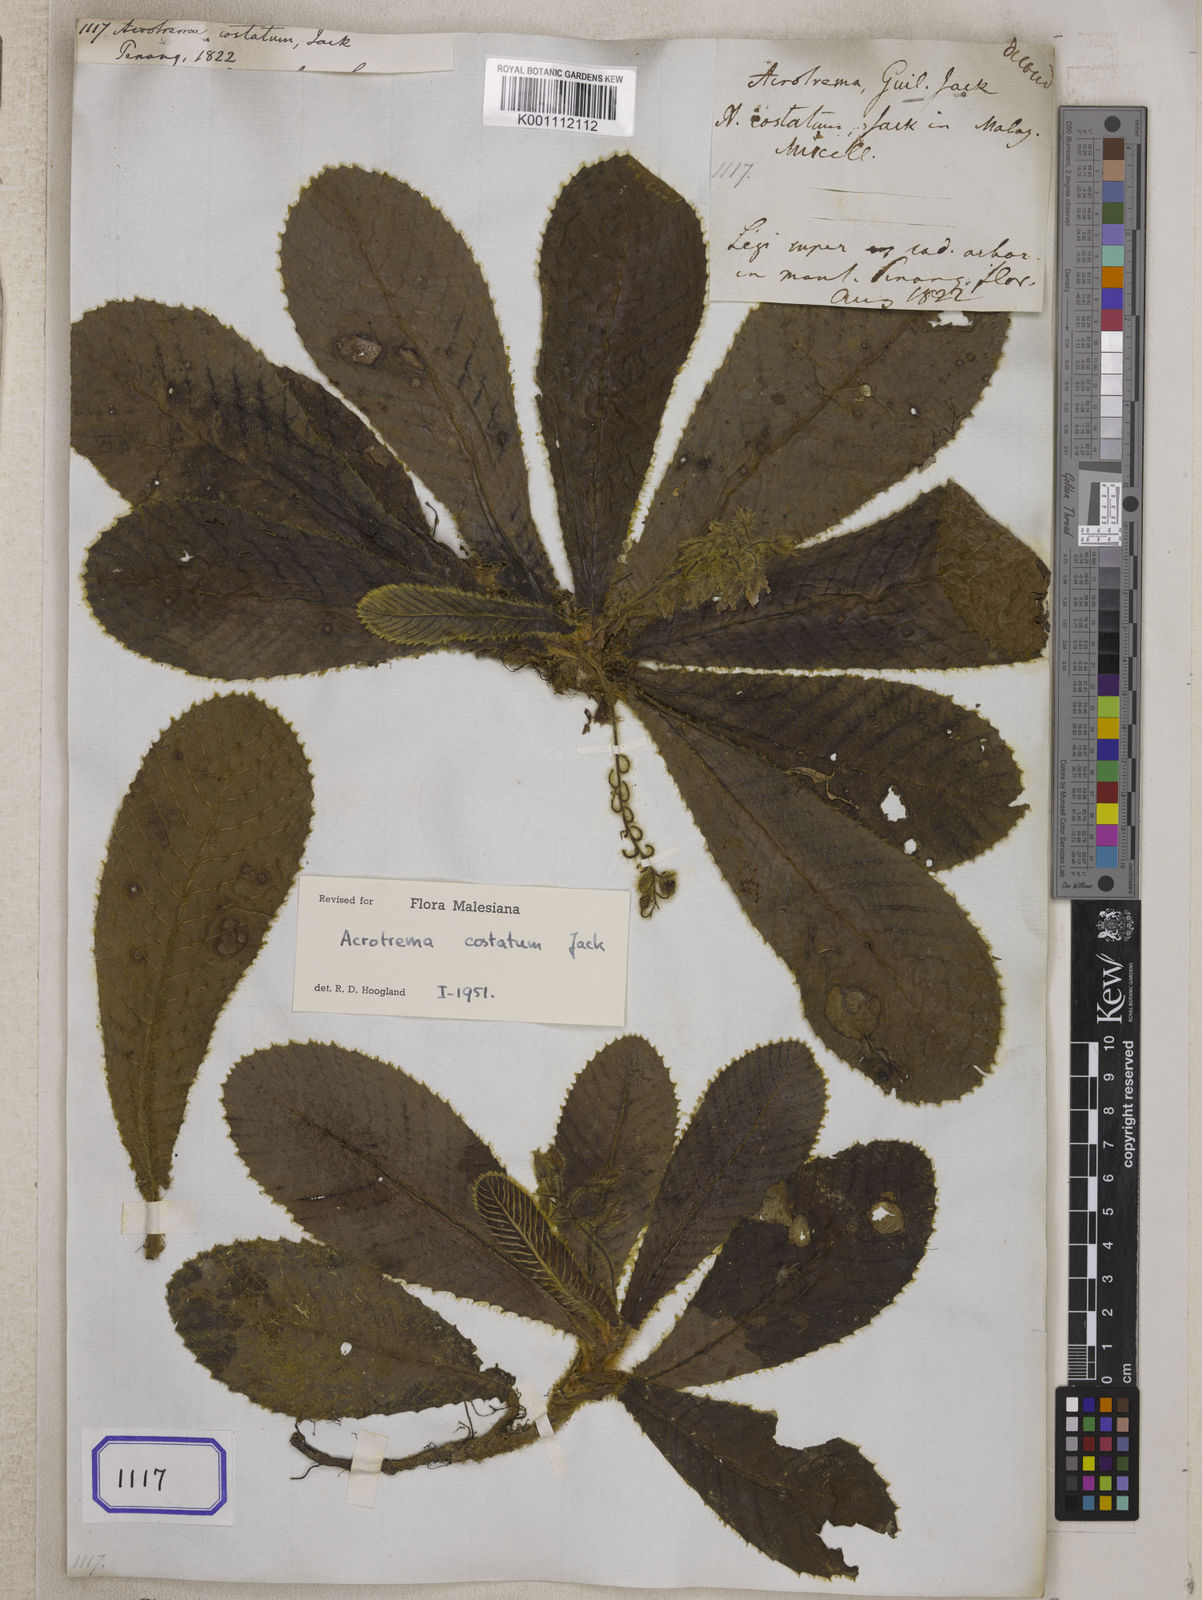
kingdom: Plantae
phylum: Tracheophyta
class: Magnoliopsida
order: Dilleniales
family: Dilleniaceae
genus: Acrotrema
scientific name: Acrotrema costatum
